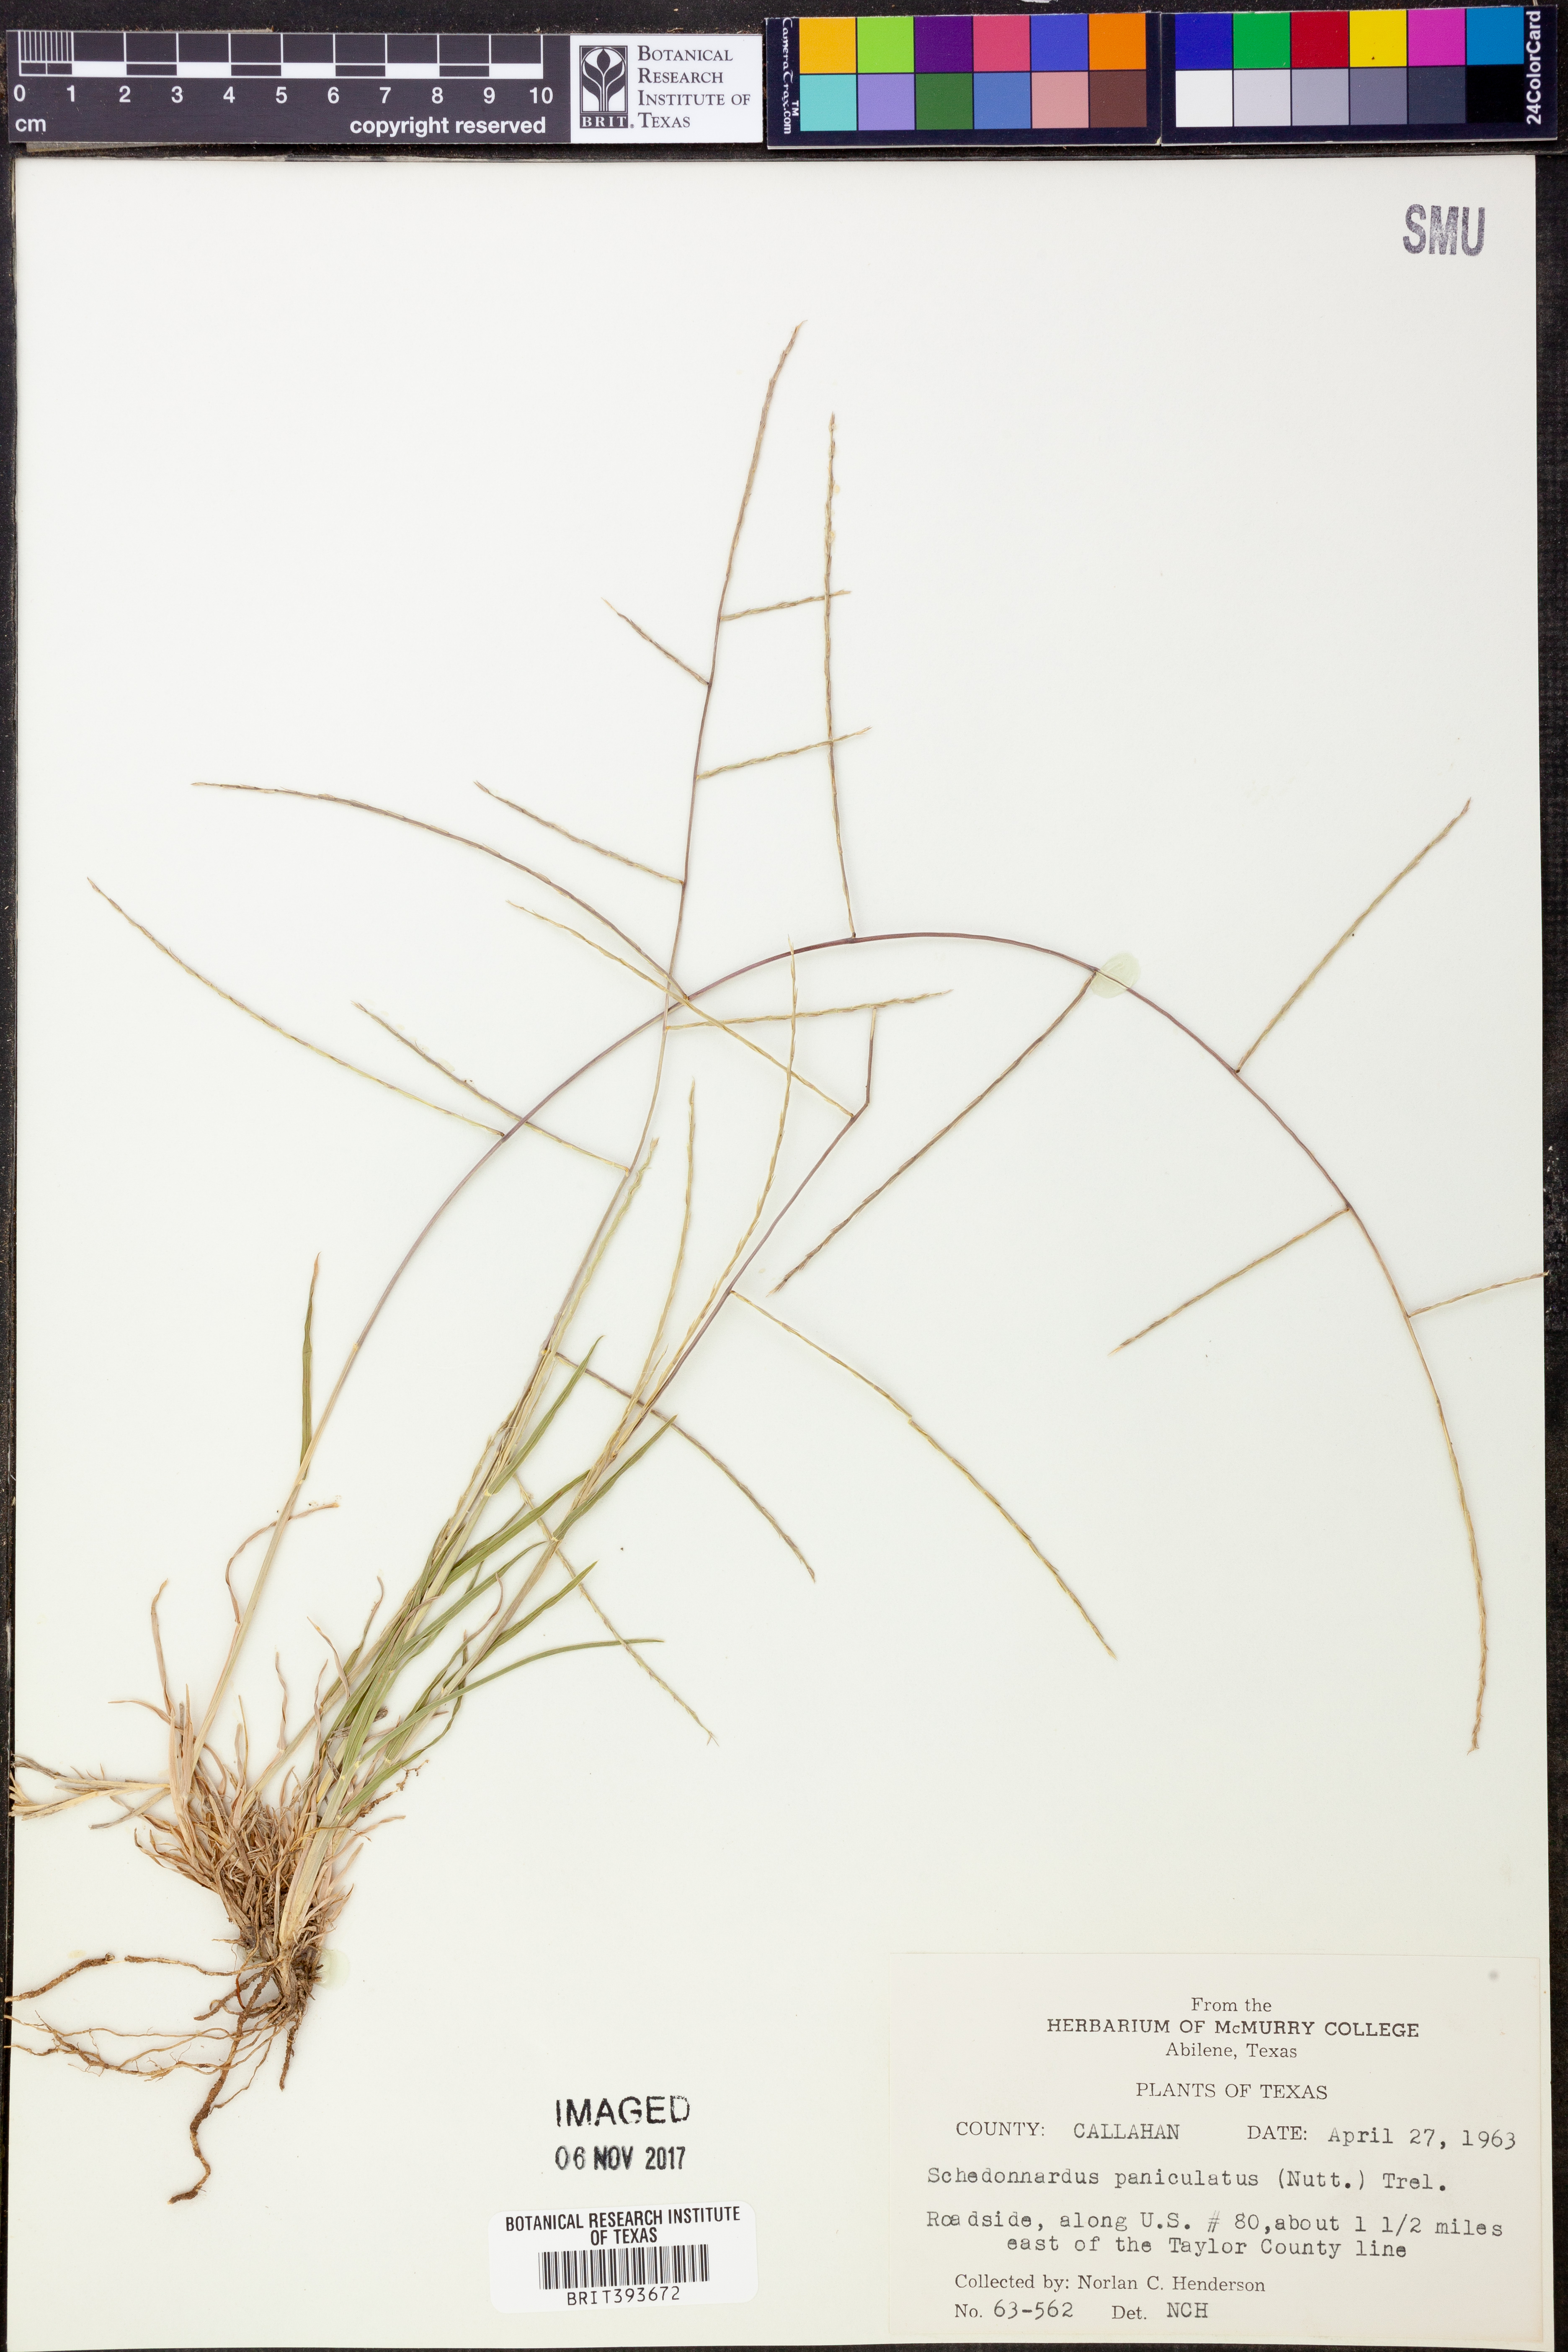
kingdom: Plantae
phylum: Tracheophyta
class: Liliopsida
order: Poales
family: Poaceae
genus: Muhlenbergia
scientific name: Muhlenbergia paniculata
